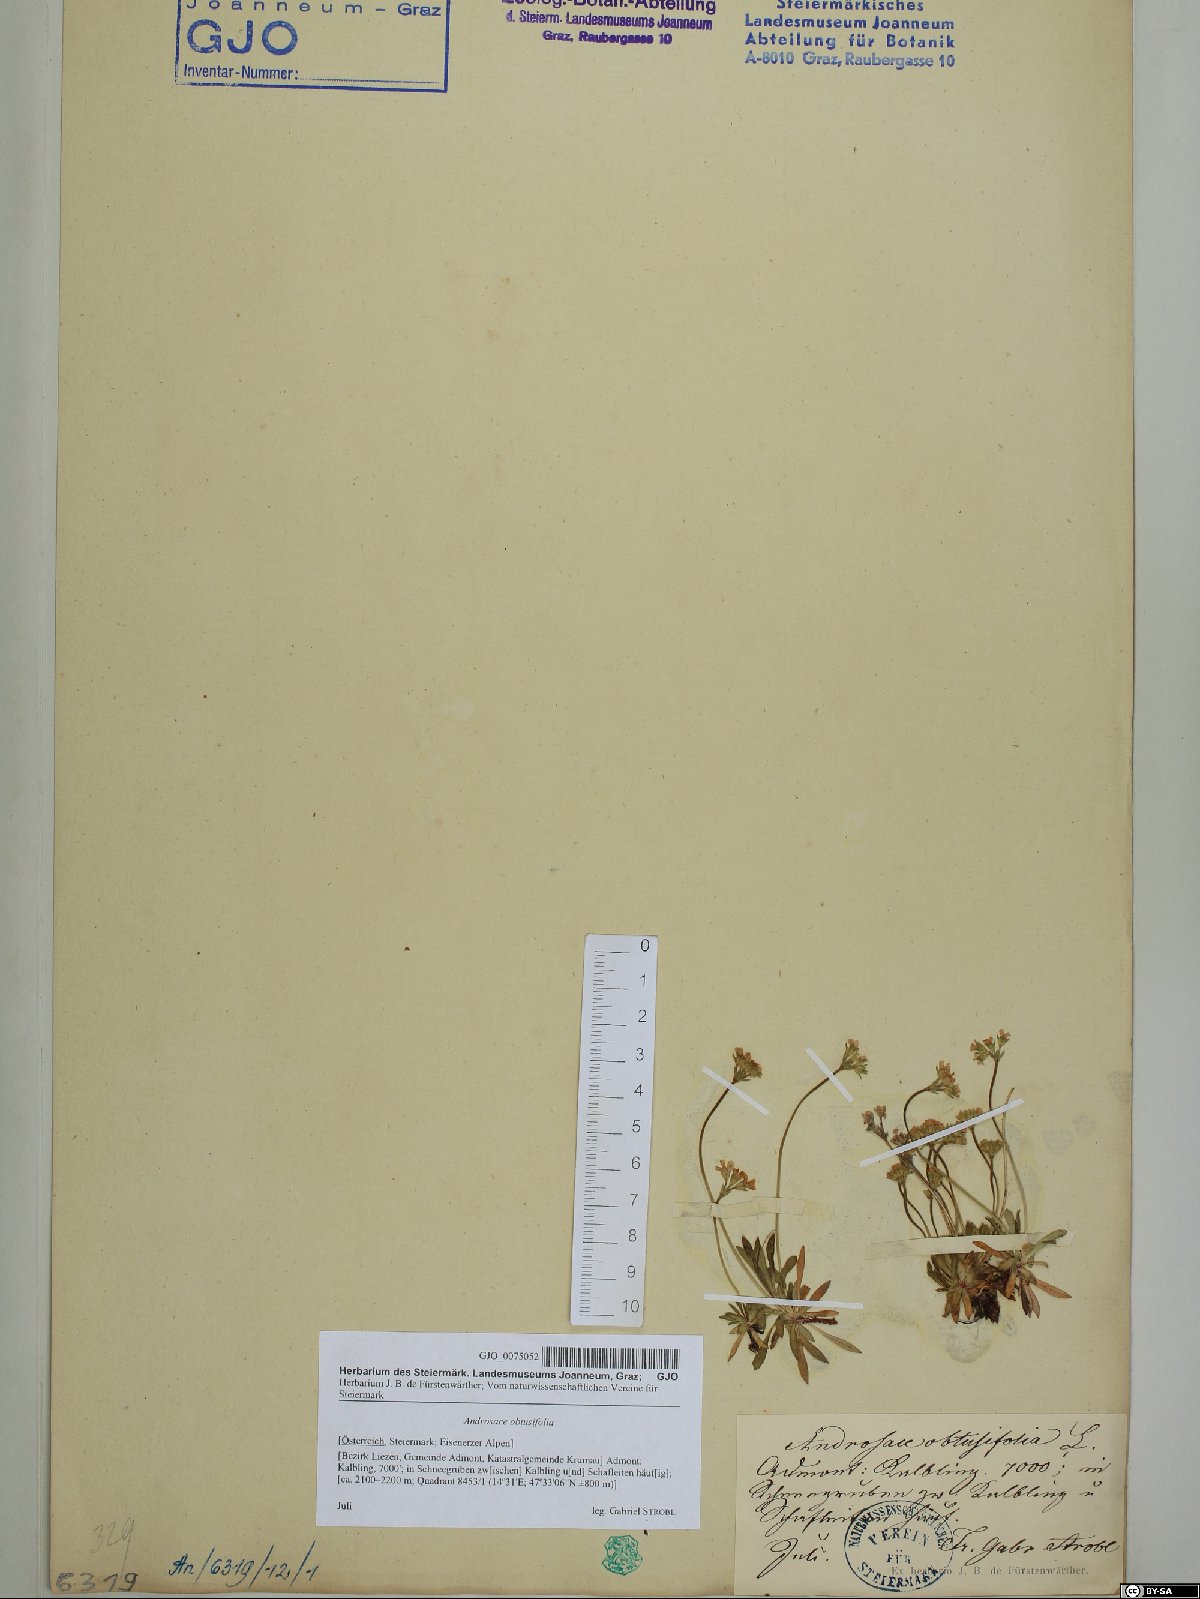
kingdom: Plantae
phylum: Tracheophyta
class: Magnoliopsida
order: Ericales
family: Primulaceae
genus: Androsace
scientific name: Androsace obtusifolia
